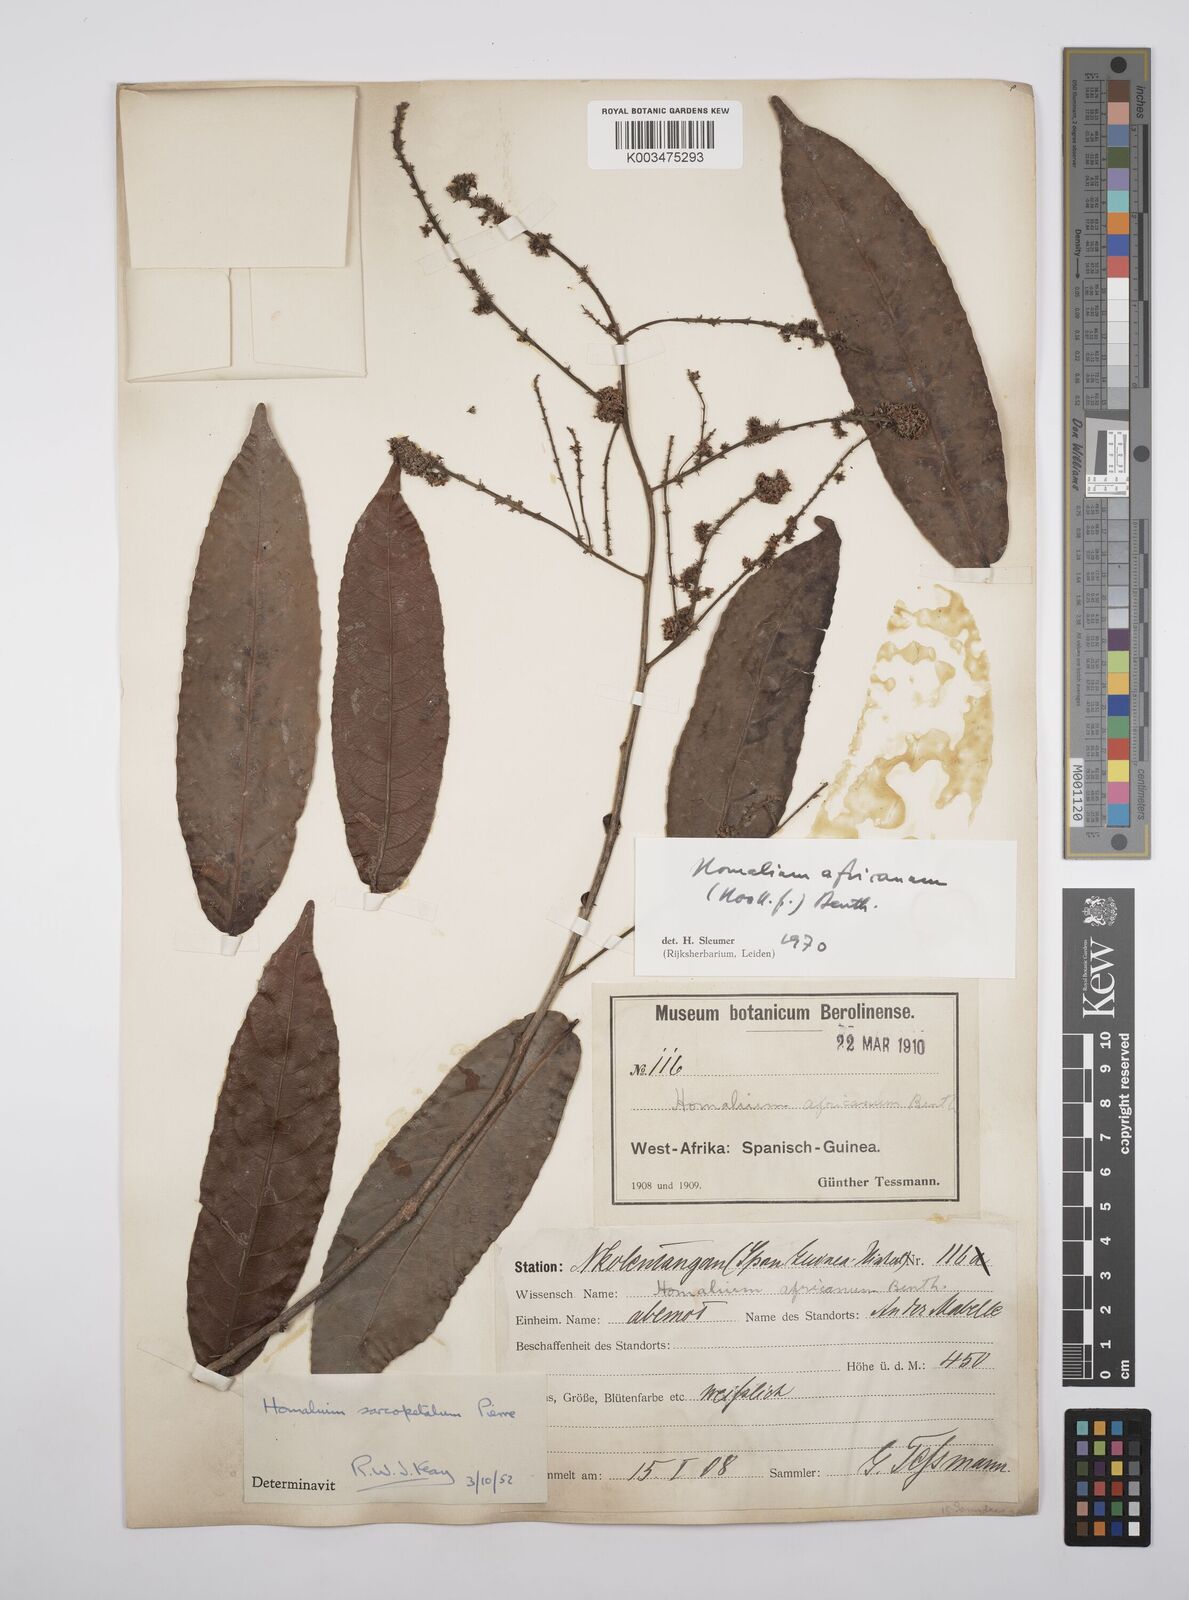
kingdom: Plantae
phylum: Tracheophyta
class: Magnoliopsida
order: Malpighiales
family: Salicaceae
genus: Homalium
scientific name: Homalium africanum
